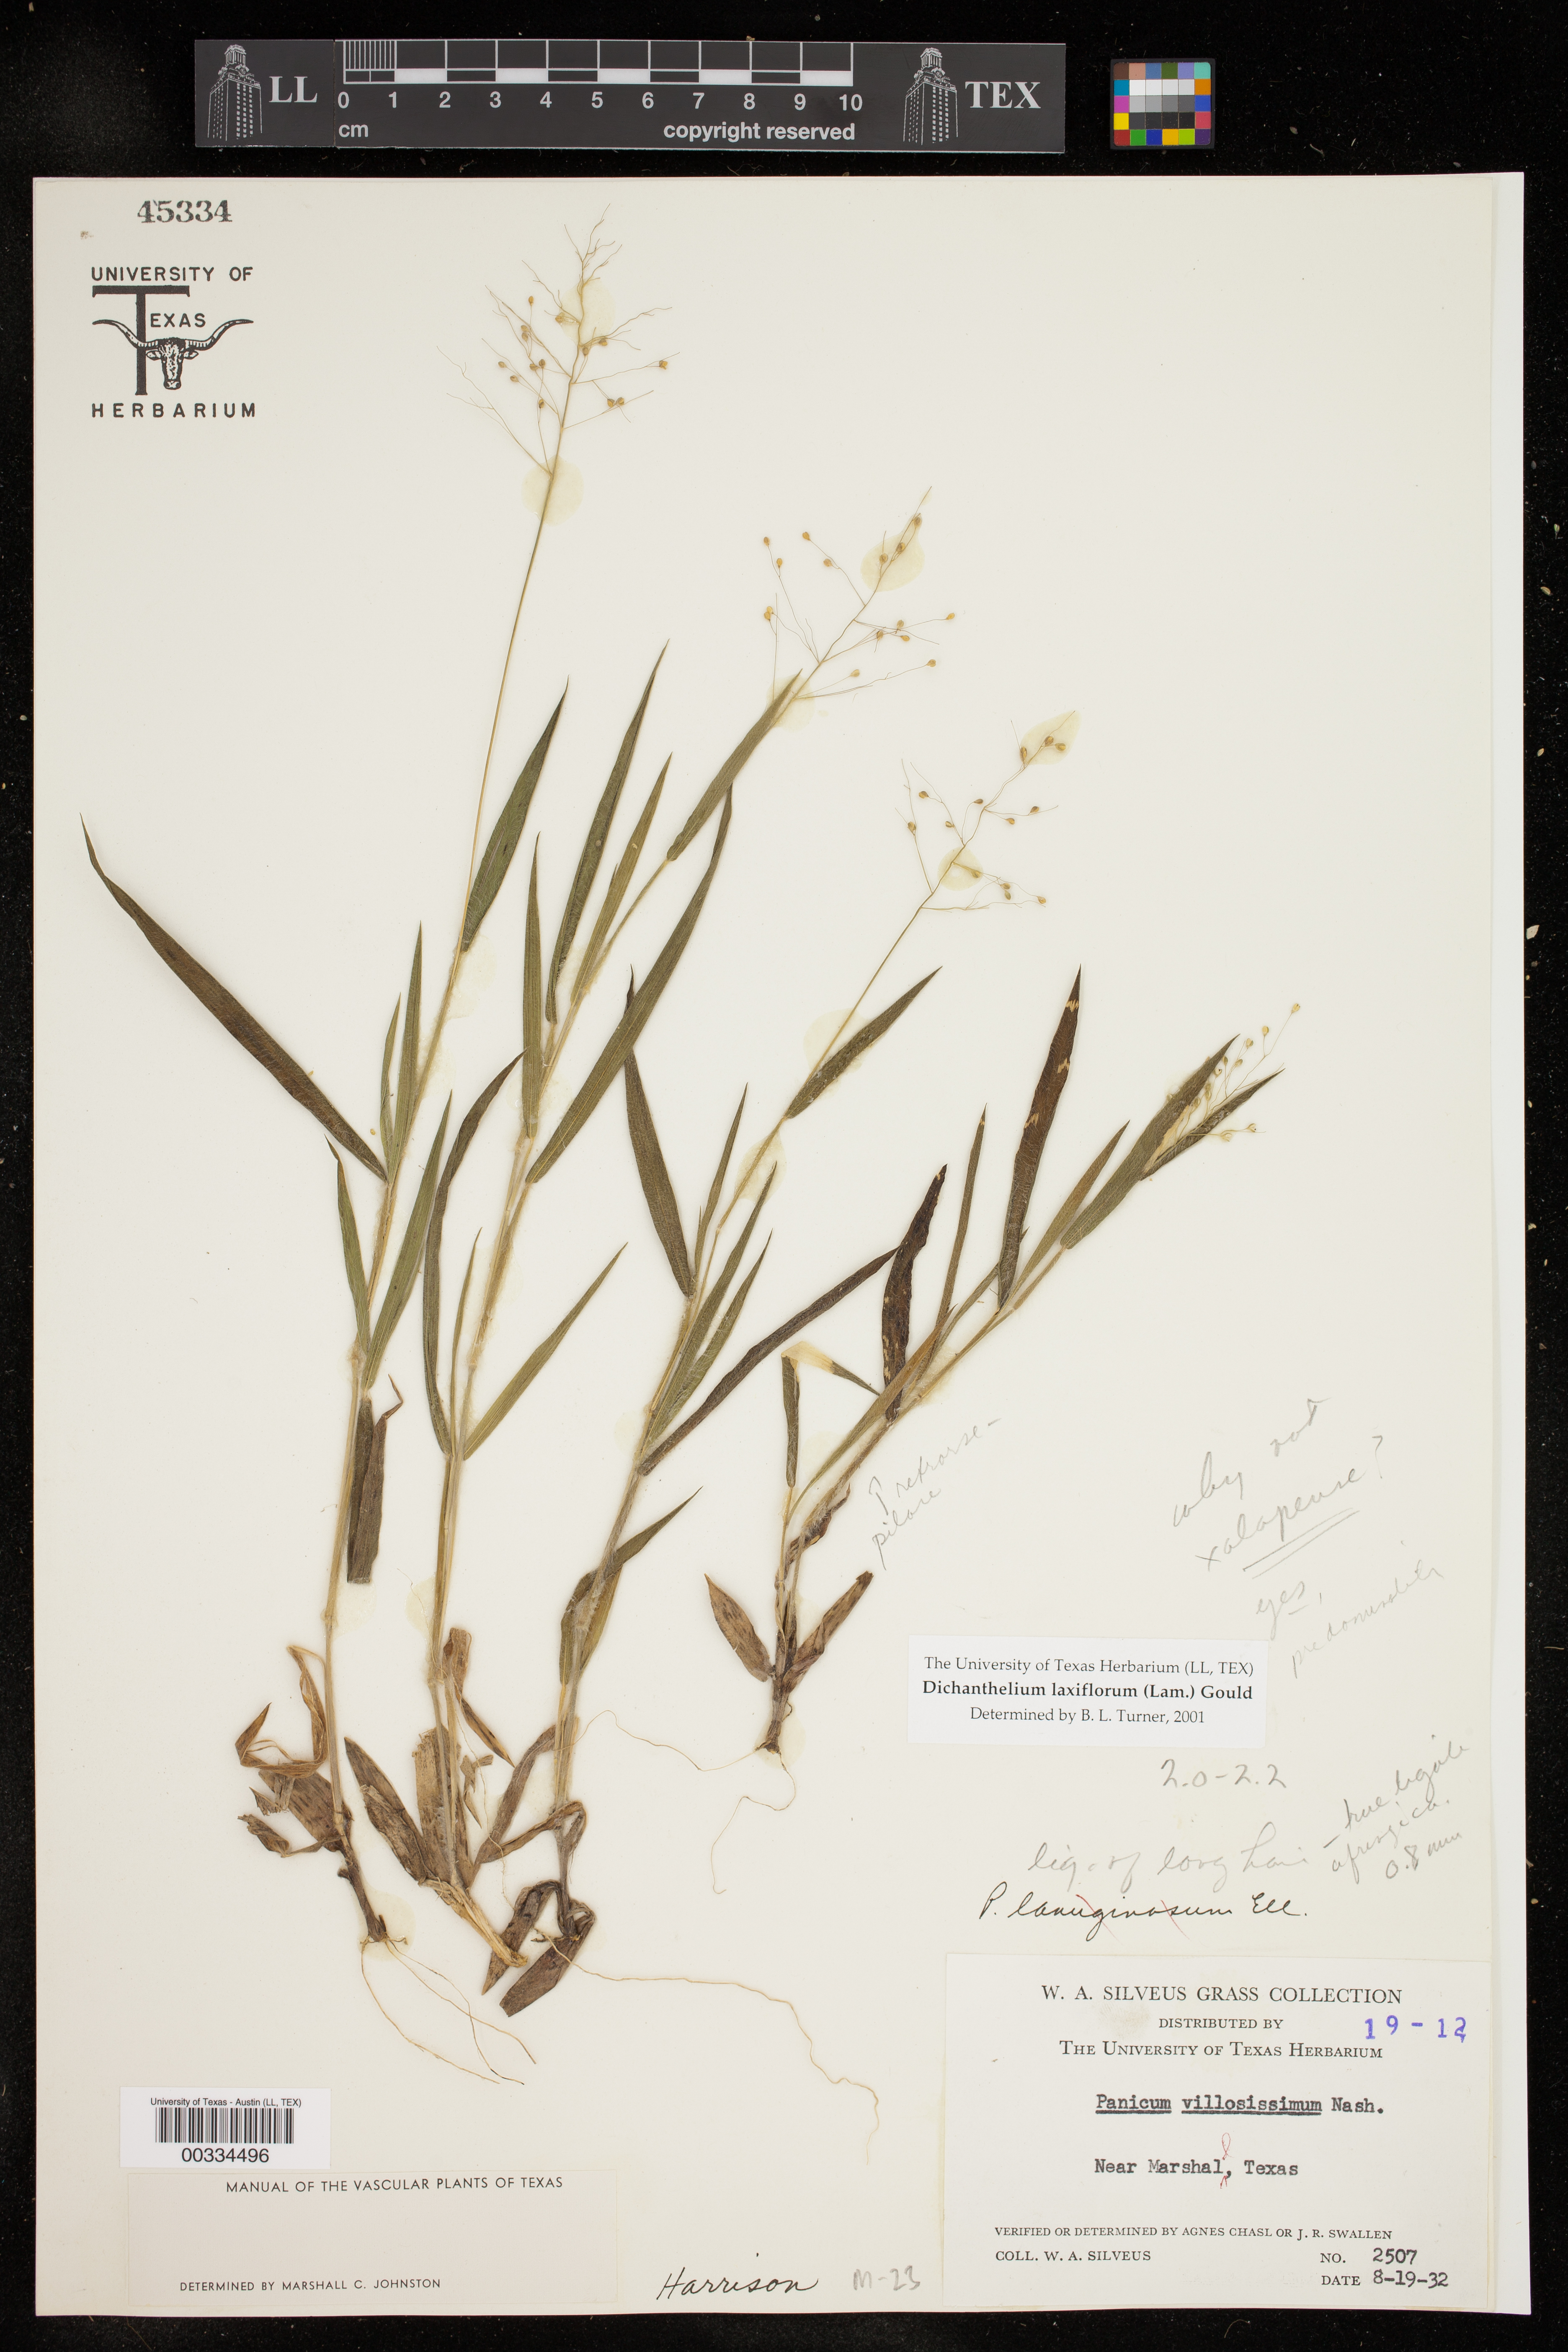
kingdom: Plantae
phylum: Tracheophyta
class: Liliopsida
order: Poales
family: Poaceae
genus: Dichanthelium
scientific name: Dichanthelium laxiflorum
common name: Soft-tuft panic grass
